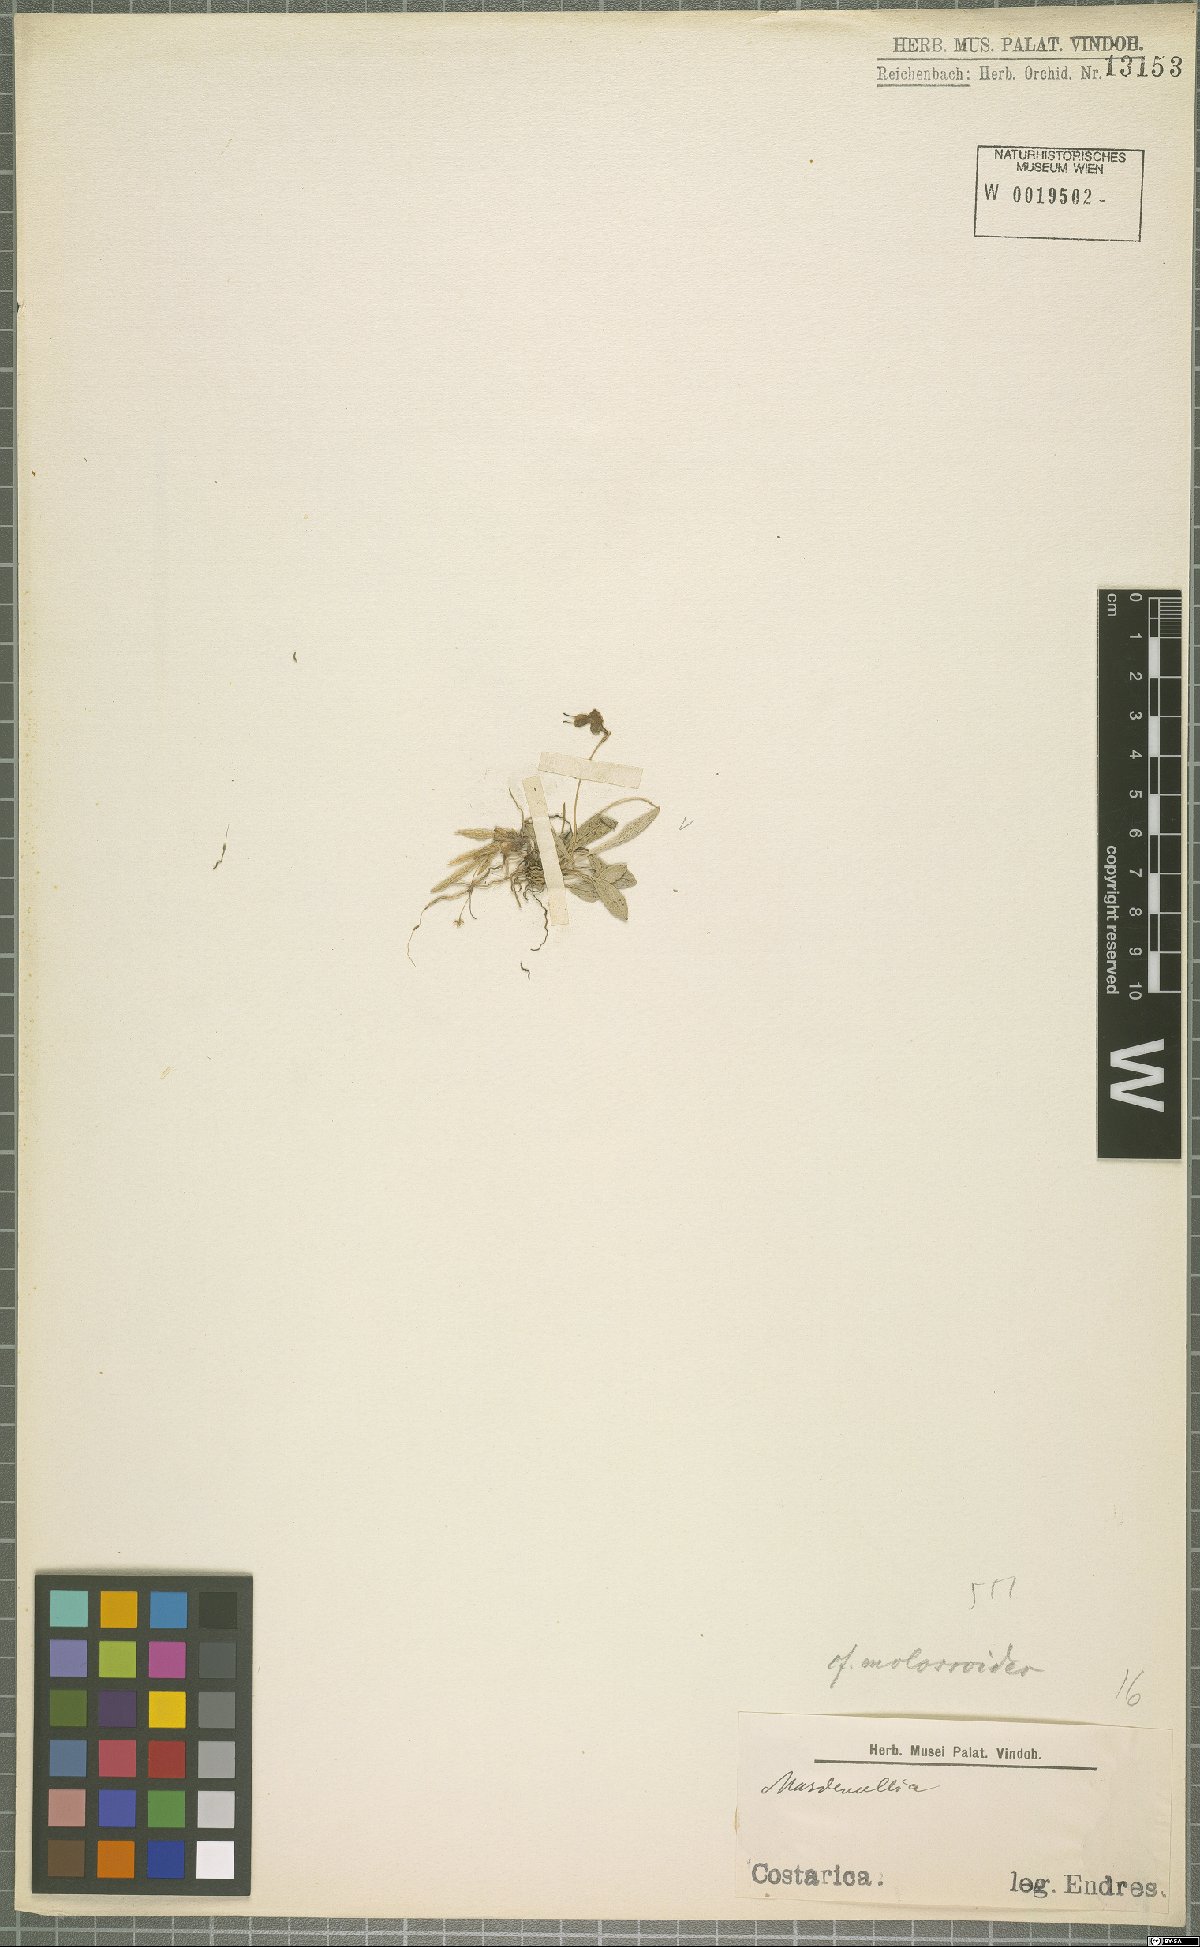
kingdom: Plantae
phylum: Tracheophyta
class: Liliopsida
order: Asparagales
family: Orchidaceae
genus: Masdevallia
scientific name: Masdevallia molossoides
